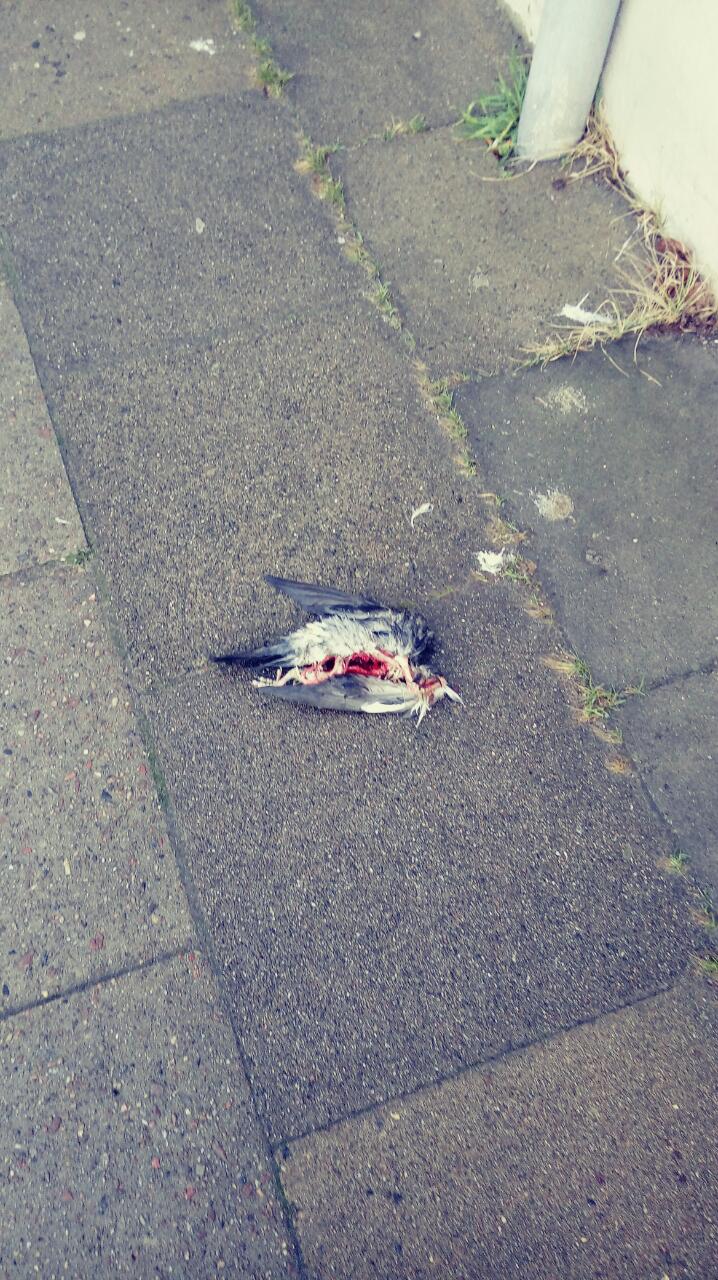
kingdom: Animalia
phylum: Chordata
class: Aves
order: Columbiformes
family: Columbidae
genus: Columba
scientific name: Columba livia
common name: Rock pigeon
